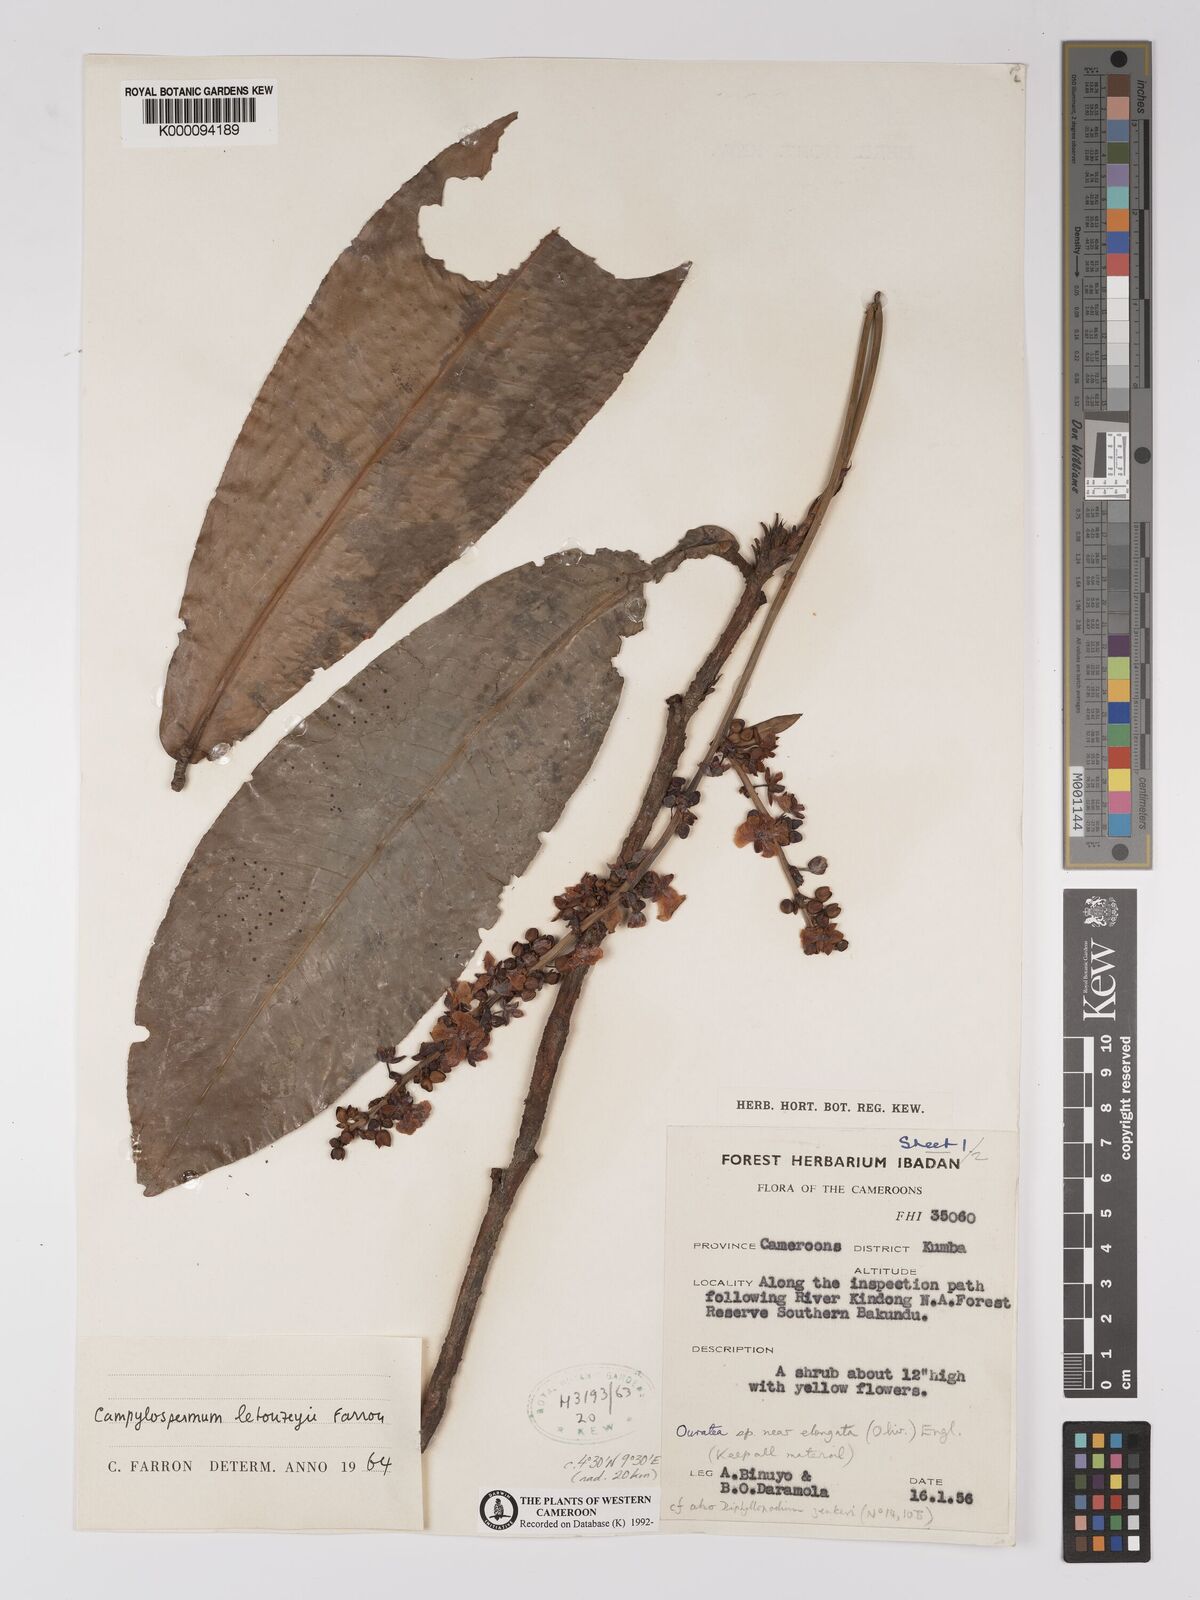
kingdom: Plantae
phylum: Tracheophyta
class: Magnoliopsida
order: Malpighiales
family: Ochnaceae
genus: Campylospermum
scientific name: Campylospermum letouzeyi
